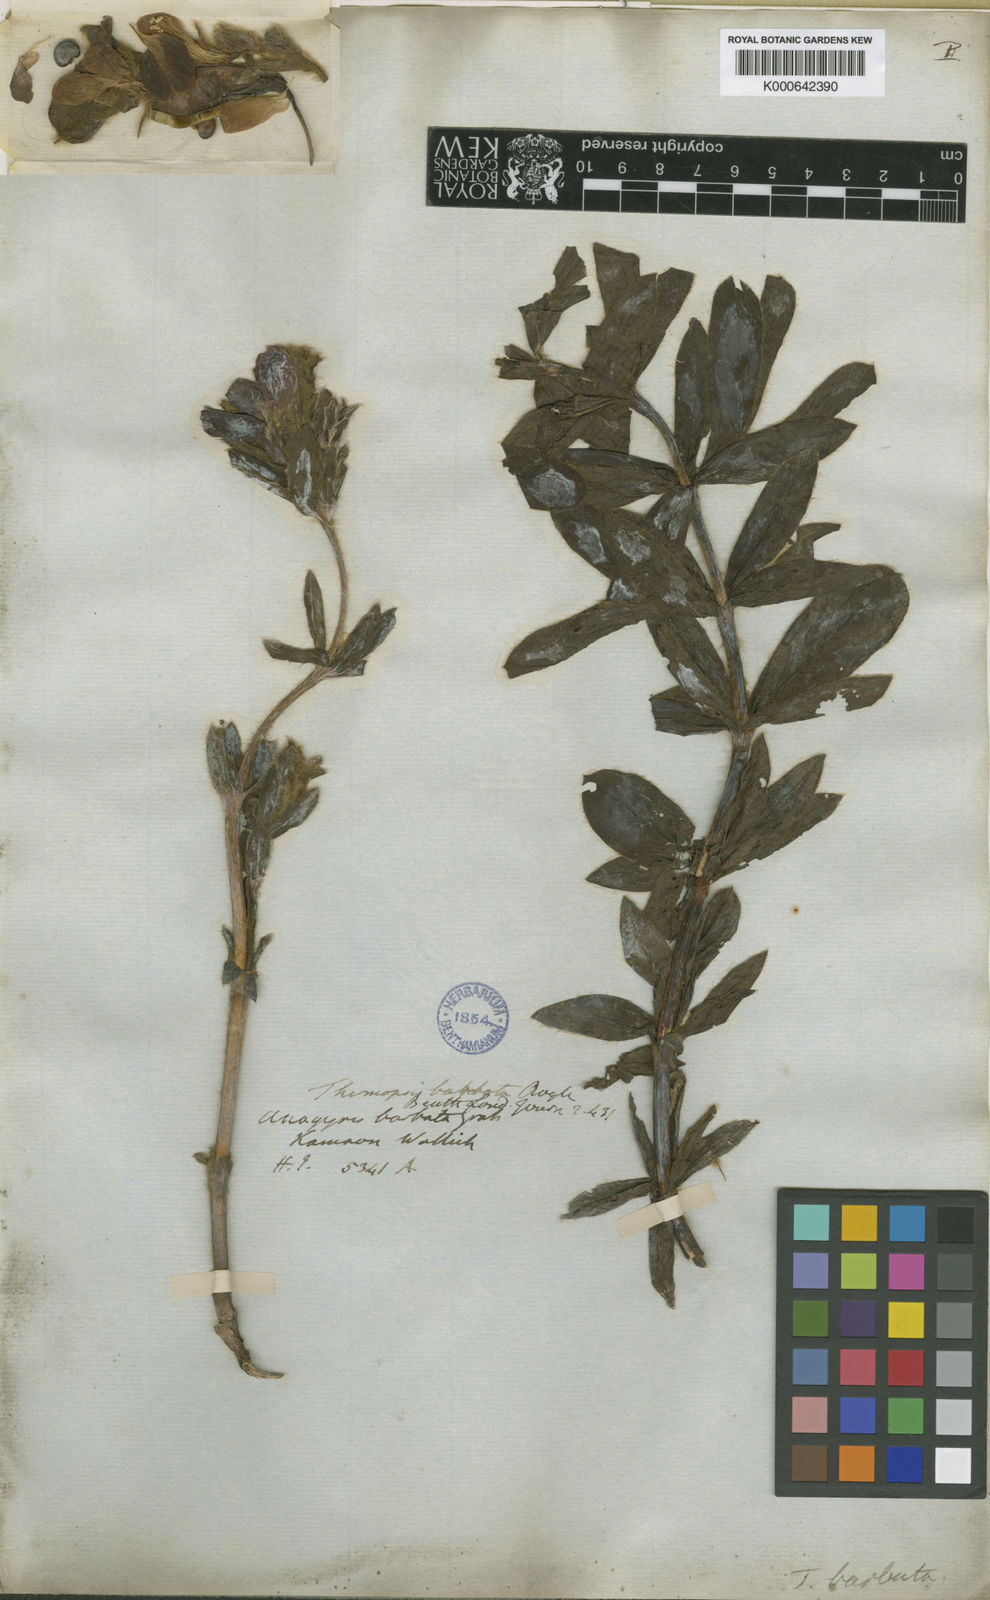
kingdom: Plantae
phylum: Tracheophyta
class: Magnoliopsida
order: Fabales
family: Fabaceae
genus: Thermopsis
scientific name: Thermopsis barbata
